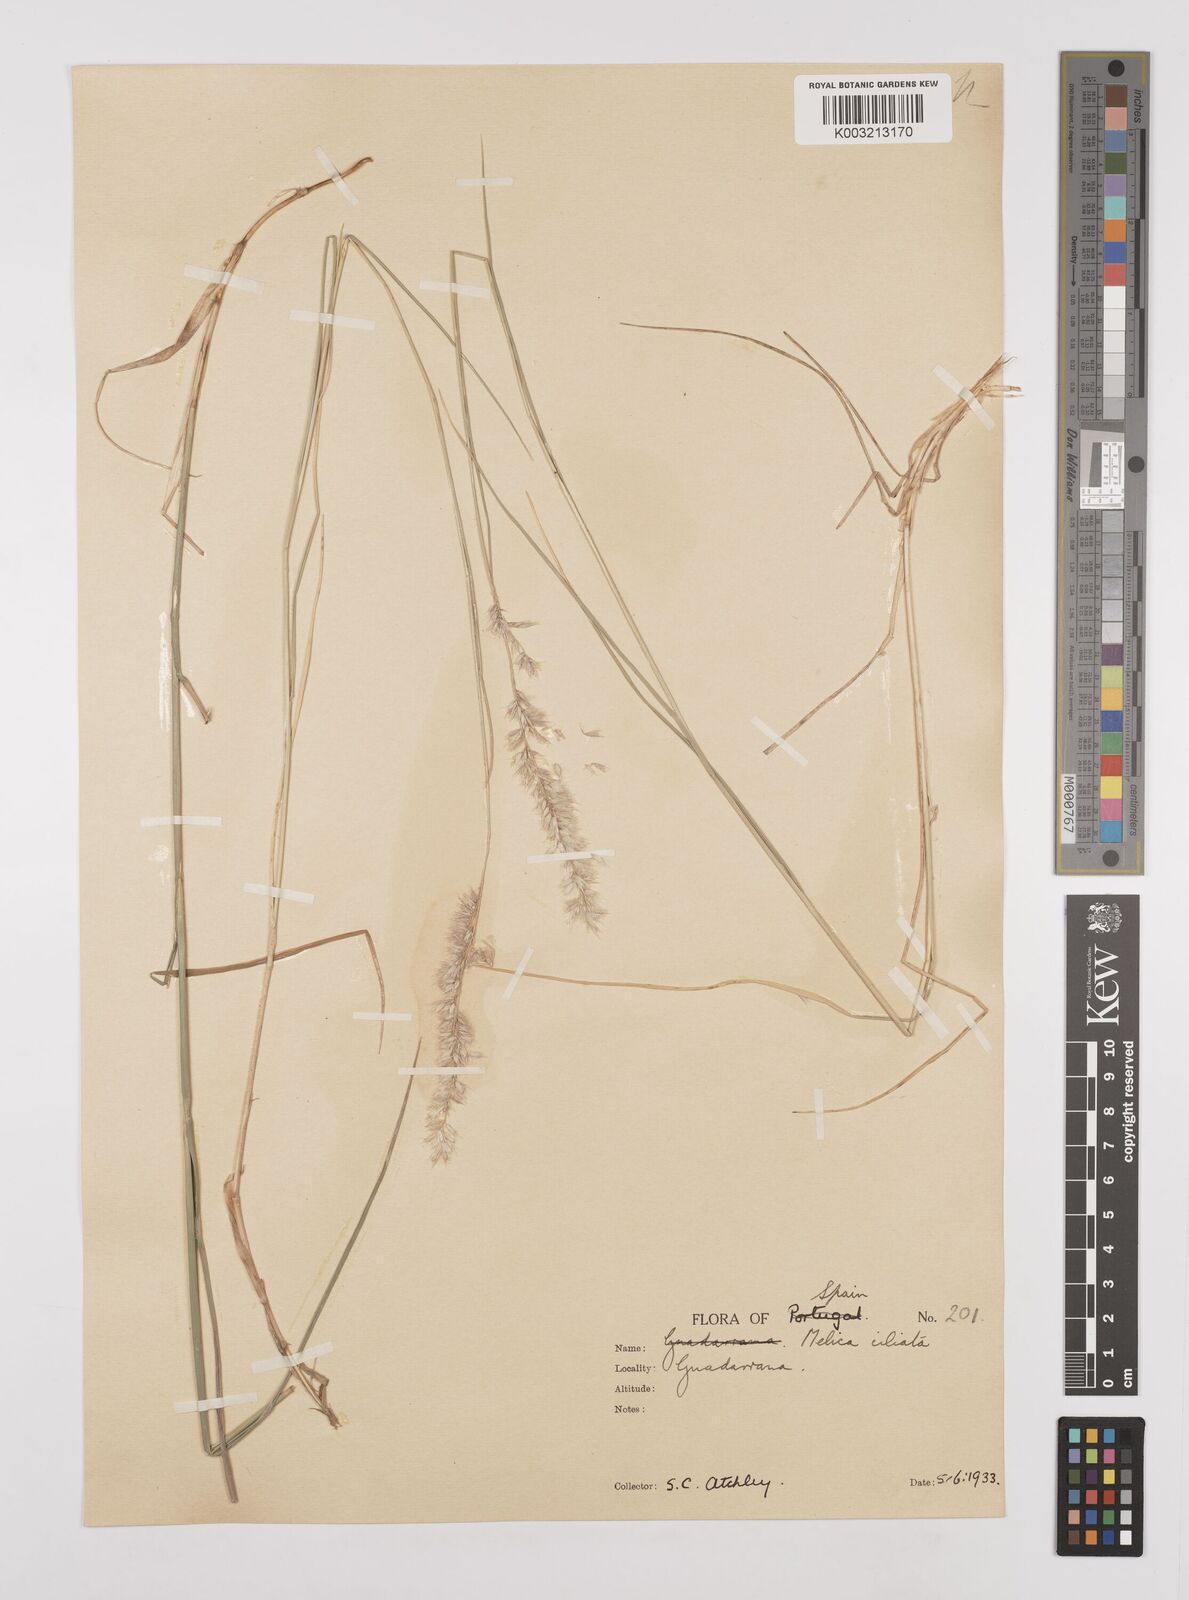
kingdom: Plantae
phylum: Tracheophyta
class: Liliopsida
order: Poales
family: Poaceae
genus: Melica
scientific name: Melica ciliata
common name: Hairy melicgrass
